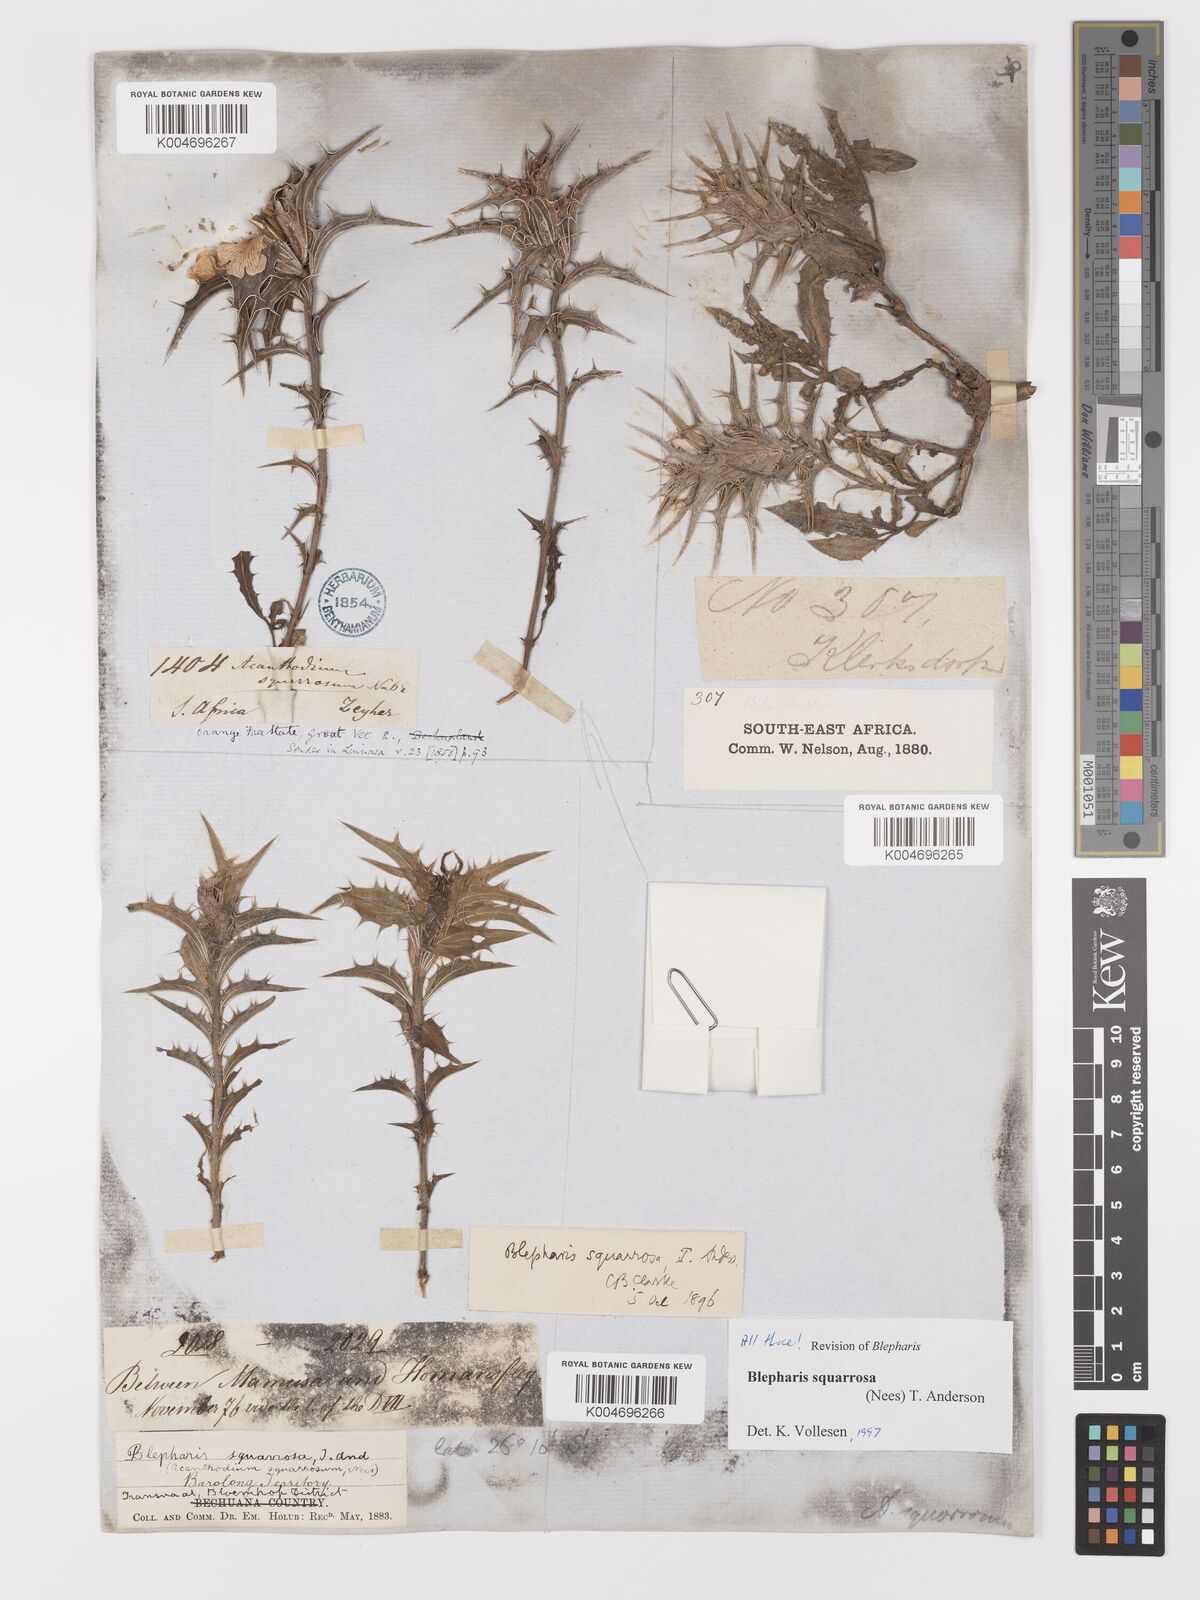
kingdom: Plantae
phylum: Tracheophyta
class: Magnoliopsida
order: Lamiales
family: Acanthaceae
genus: Blepharis
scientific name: Blepharis squarrosa
